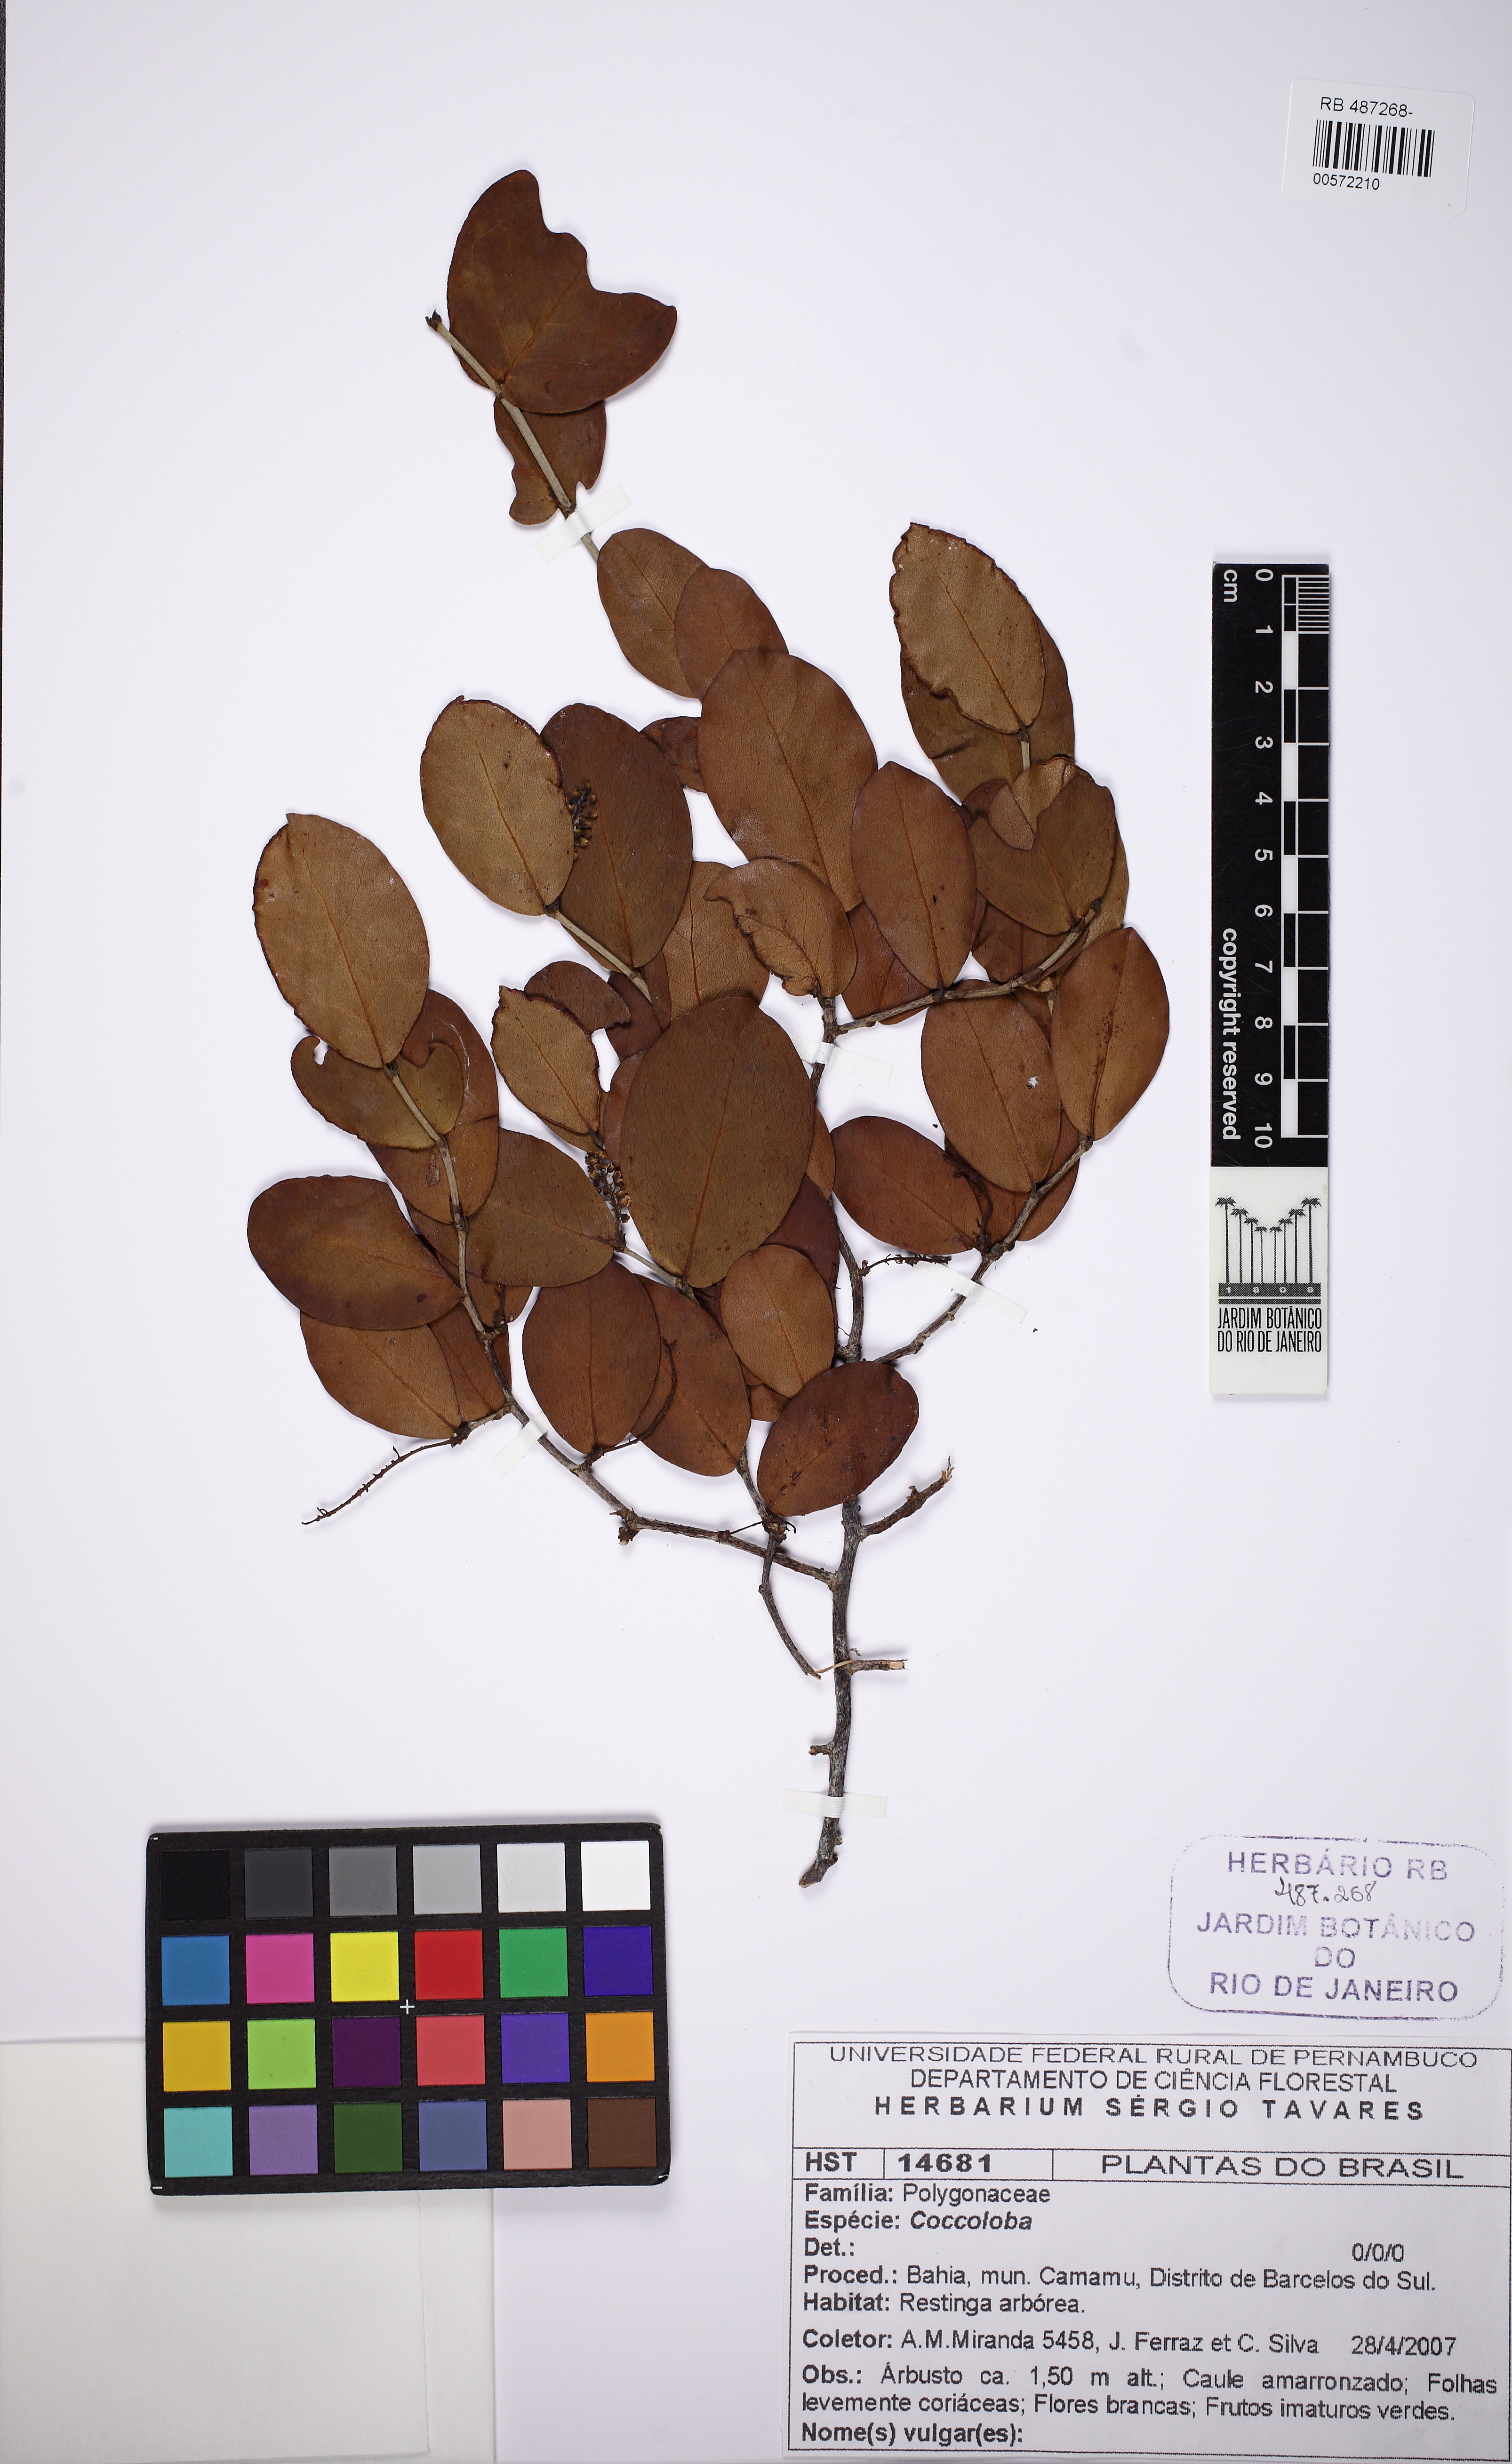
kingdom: Plantae
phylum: Tracheophyta
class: Magnoliopsida
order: Caryophyllales
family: Polygonaceae
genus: Coccoloba
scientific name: Coccoloba
